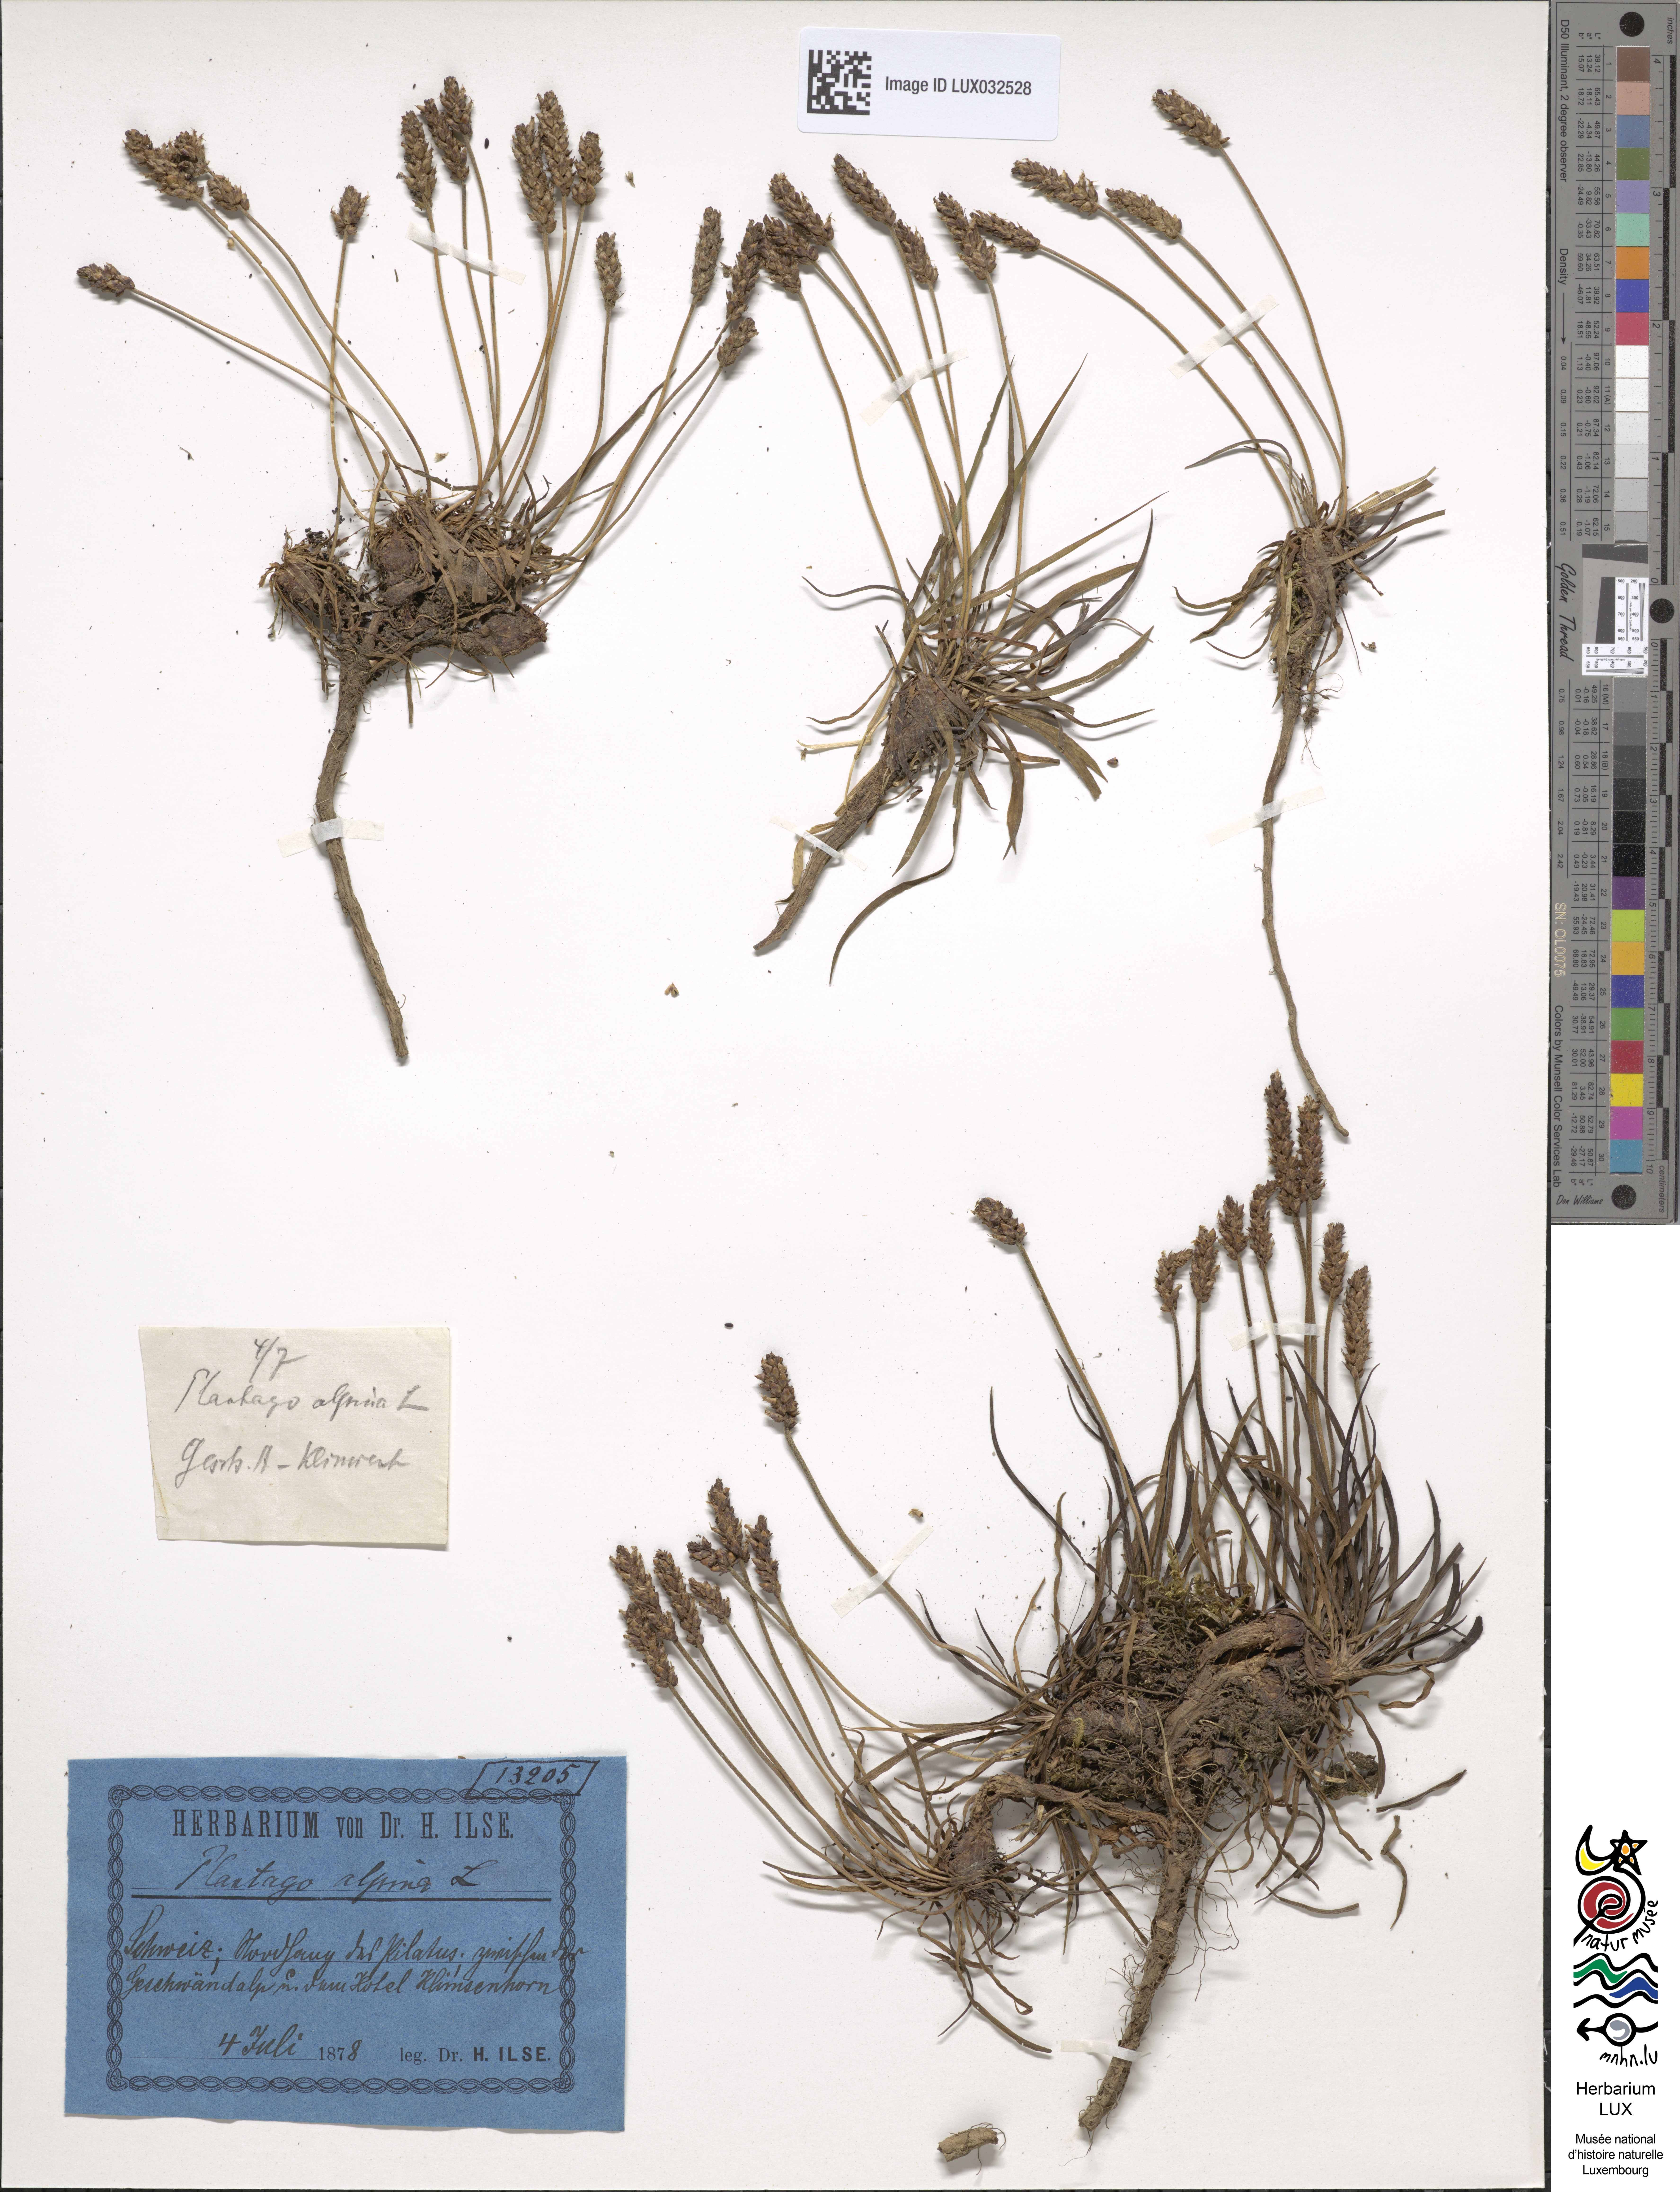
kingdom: Plantae
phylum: Tracheophyta
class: Magnoliopsida
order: Lamiales
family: Plantaginaceae
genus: Plantago
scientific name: Plantago alpina
